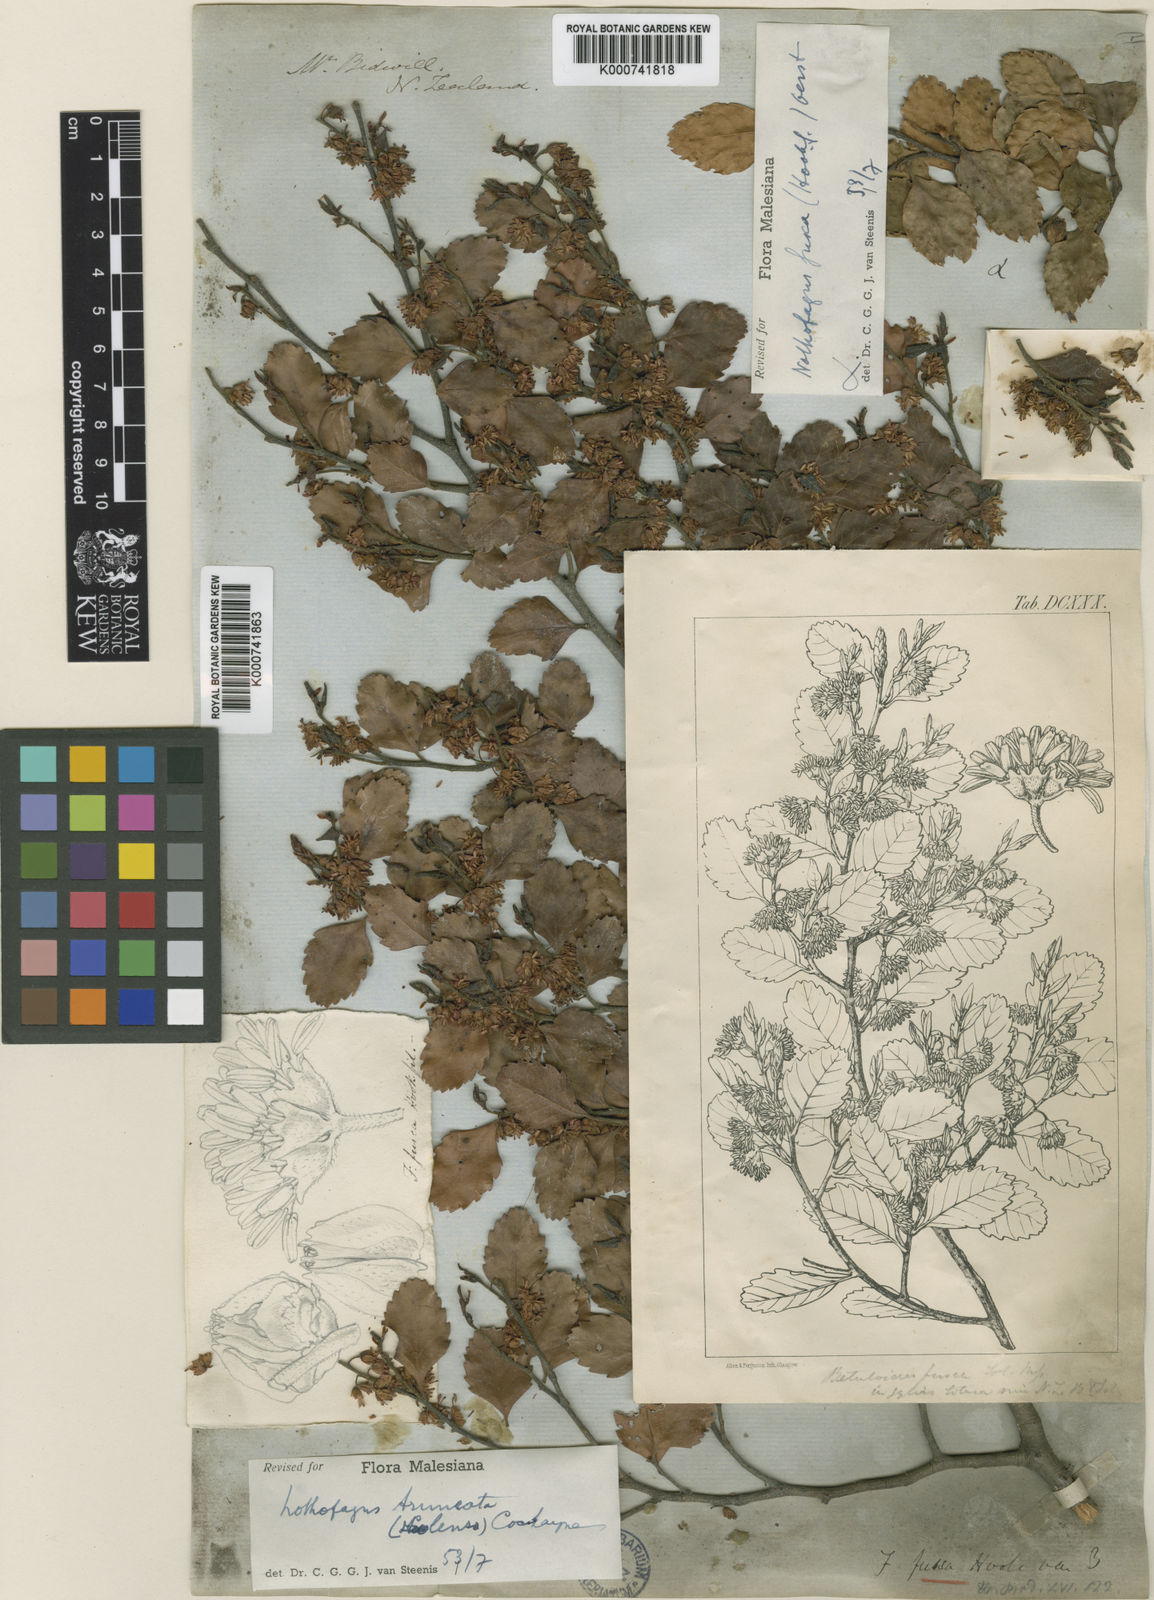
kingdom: Plantae
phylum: Tracheophyta
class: Magnoliopsida
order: Fagales
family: Nothofagaceae
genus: Nothofagus
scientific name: Nothofagus fusca
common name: Red beech
